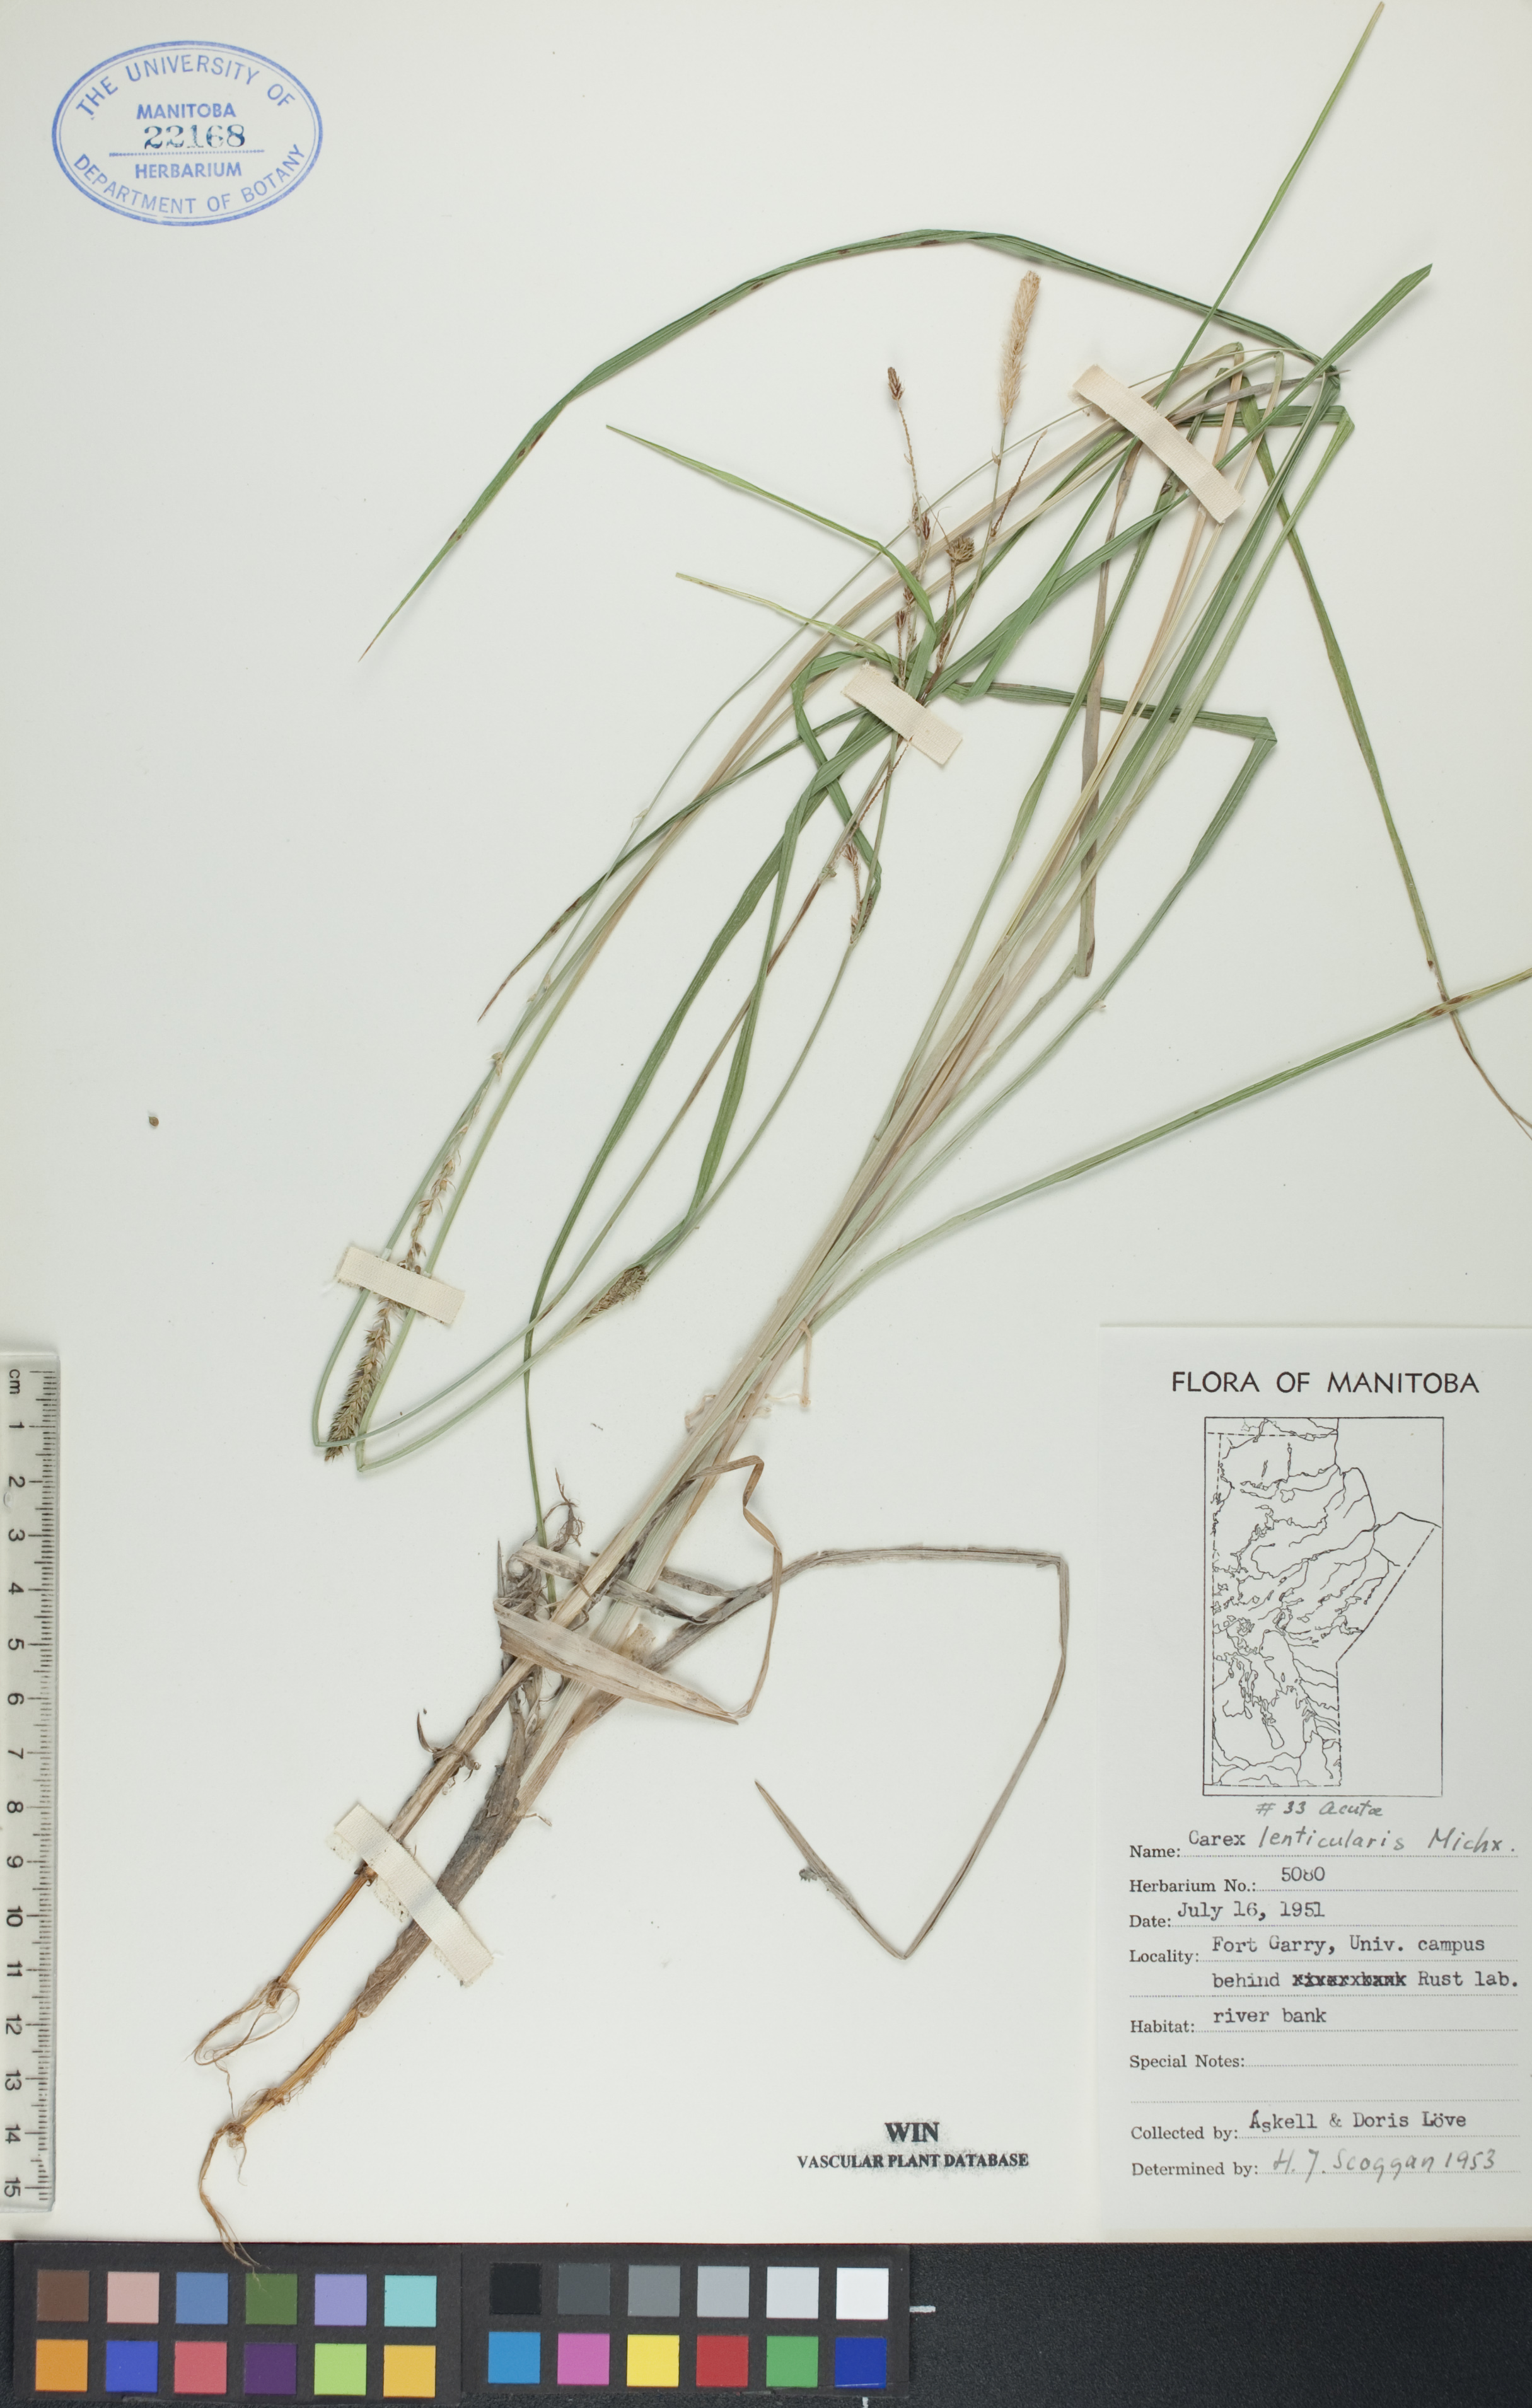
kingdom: Plantae
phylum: Tracheophyta
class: Liliopsida
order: Poales
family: Cyperaceae
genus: Carex
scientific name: Carex lenticularis
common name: Lakeshore sedge
